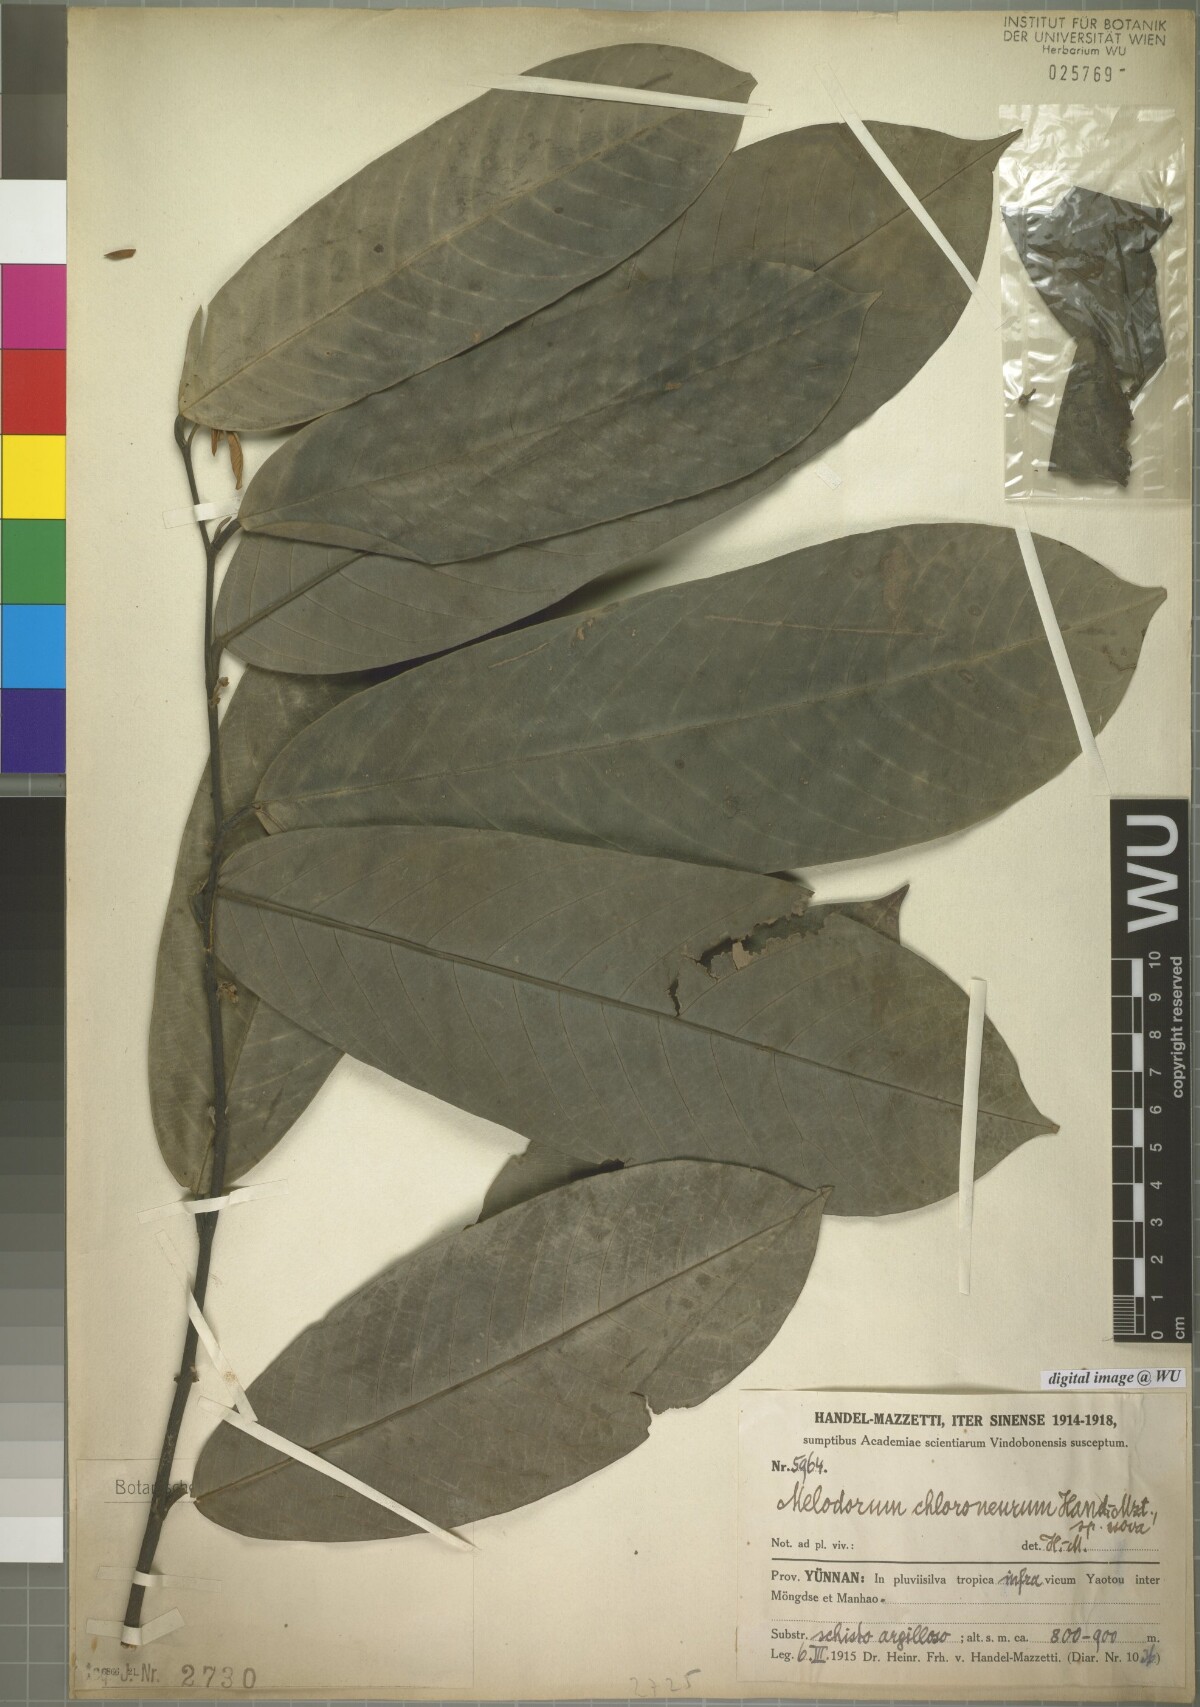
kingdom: Plantae
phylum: Tracheophyta
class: Magnoliopsida
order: Magnoliales
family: Annonaceae
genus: Fissistigma
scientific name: Fissistigma chloroneurum
